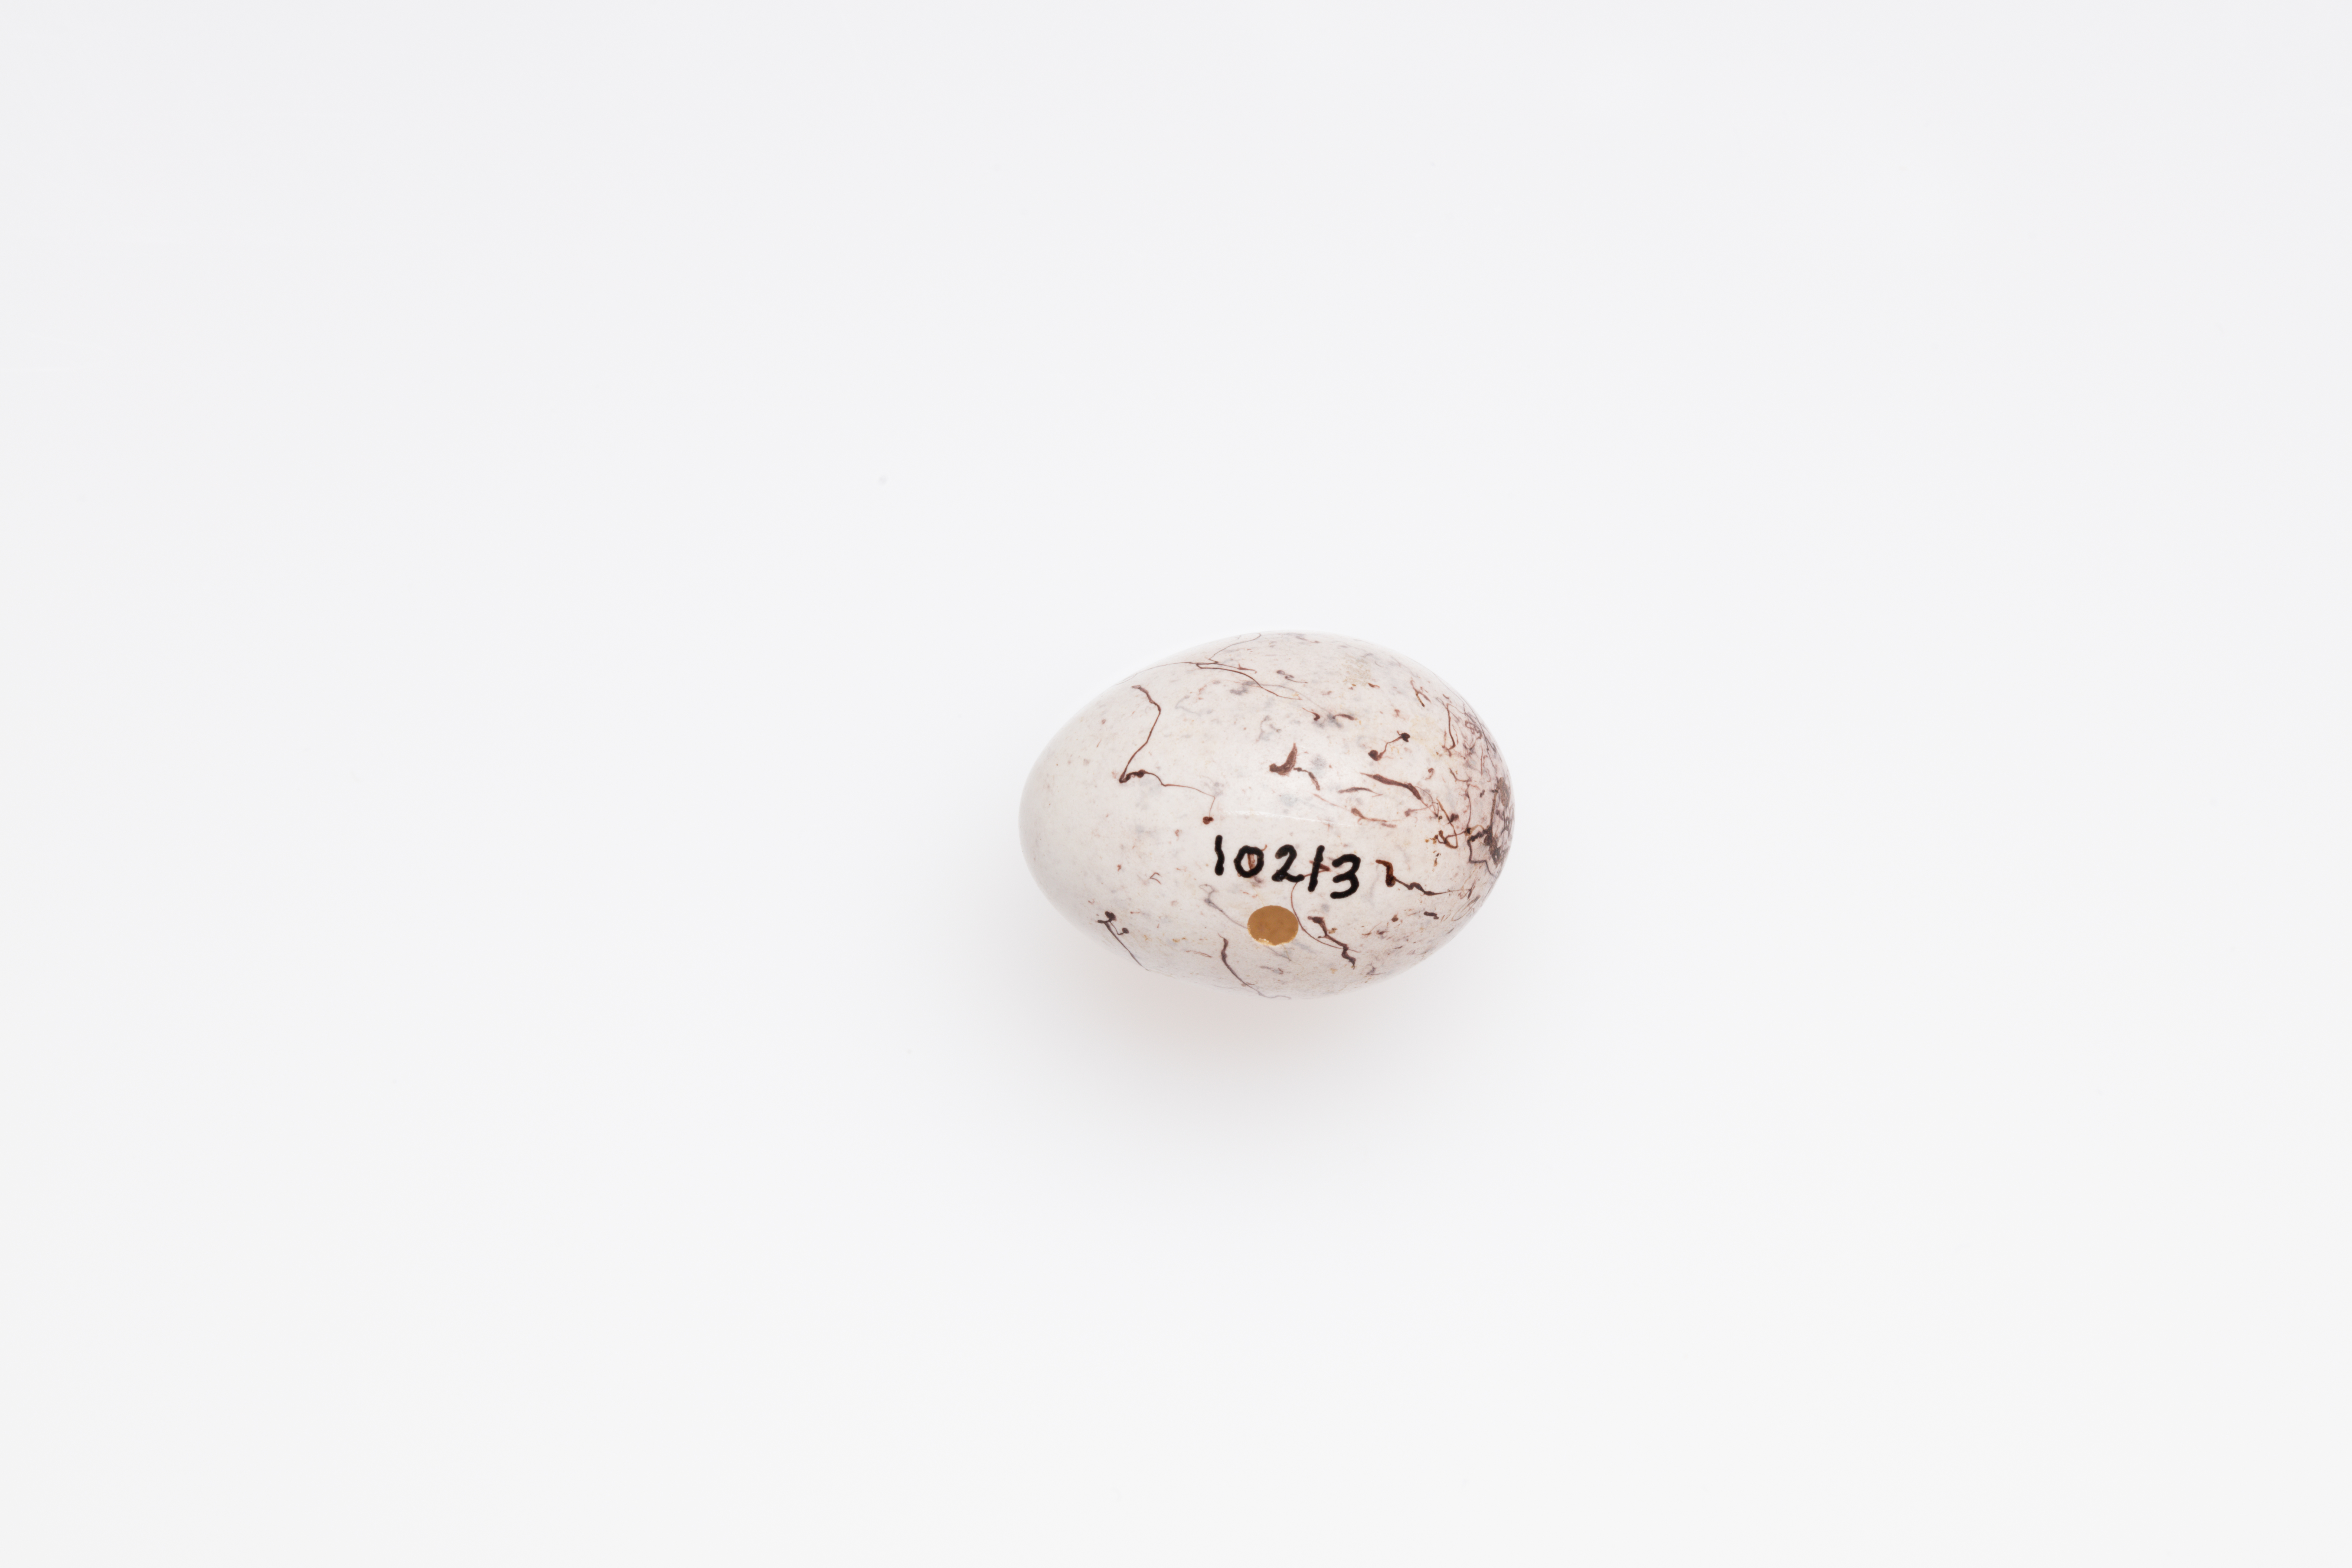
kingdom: Animalia
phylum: Chordata
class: Aves
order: Passeriformes
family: Emberizidae
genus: Emberiza
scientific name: Emberiza citrinella
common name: Yellowhammer
